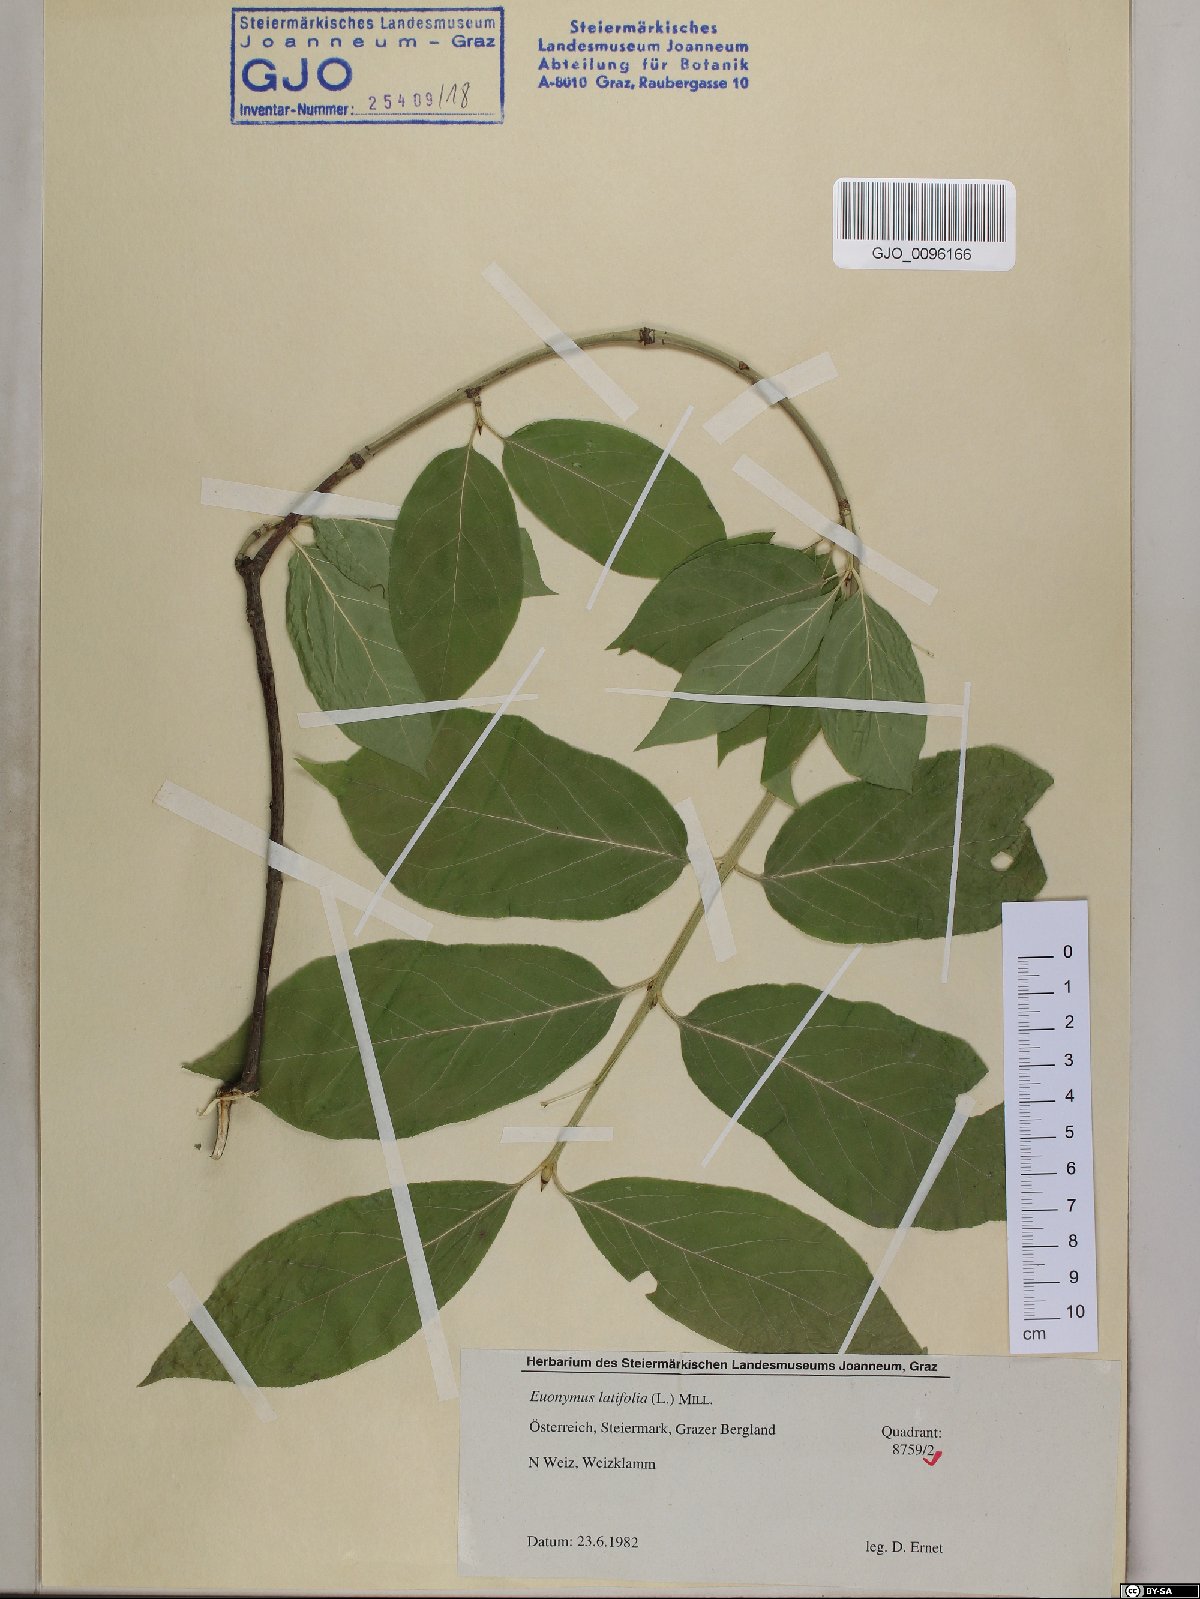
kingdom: Plantae
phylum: Tracheophyta
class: Magnoliopsida
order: Celastrales
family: Celastraceae
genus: Euonymus
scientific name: Euonymus latifolius
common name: Large-leaved spindle
